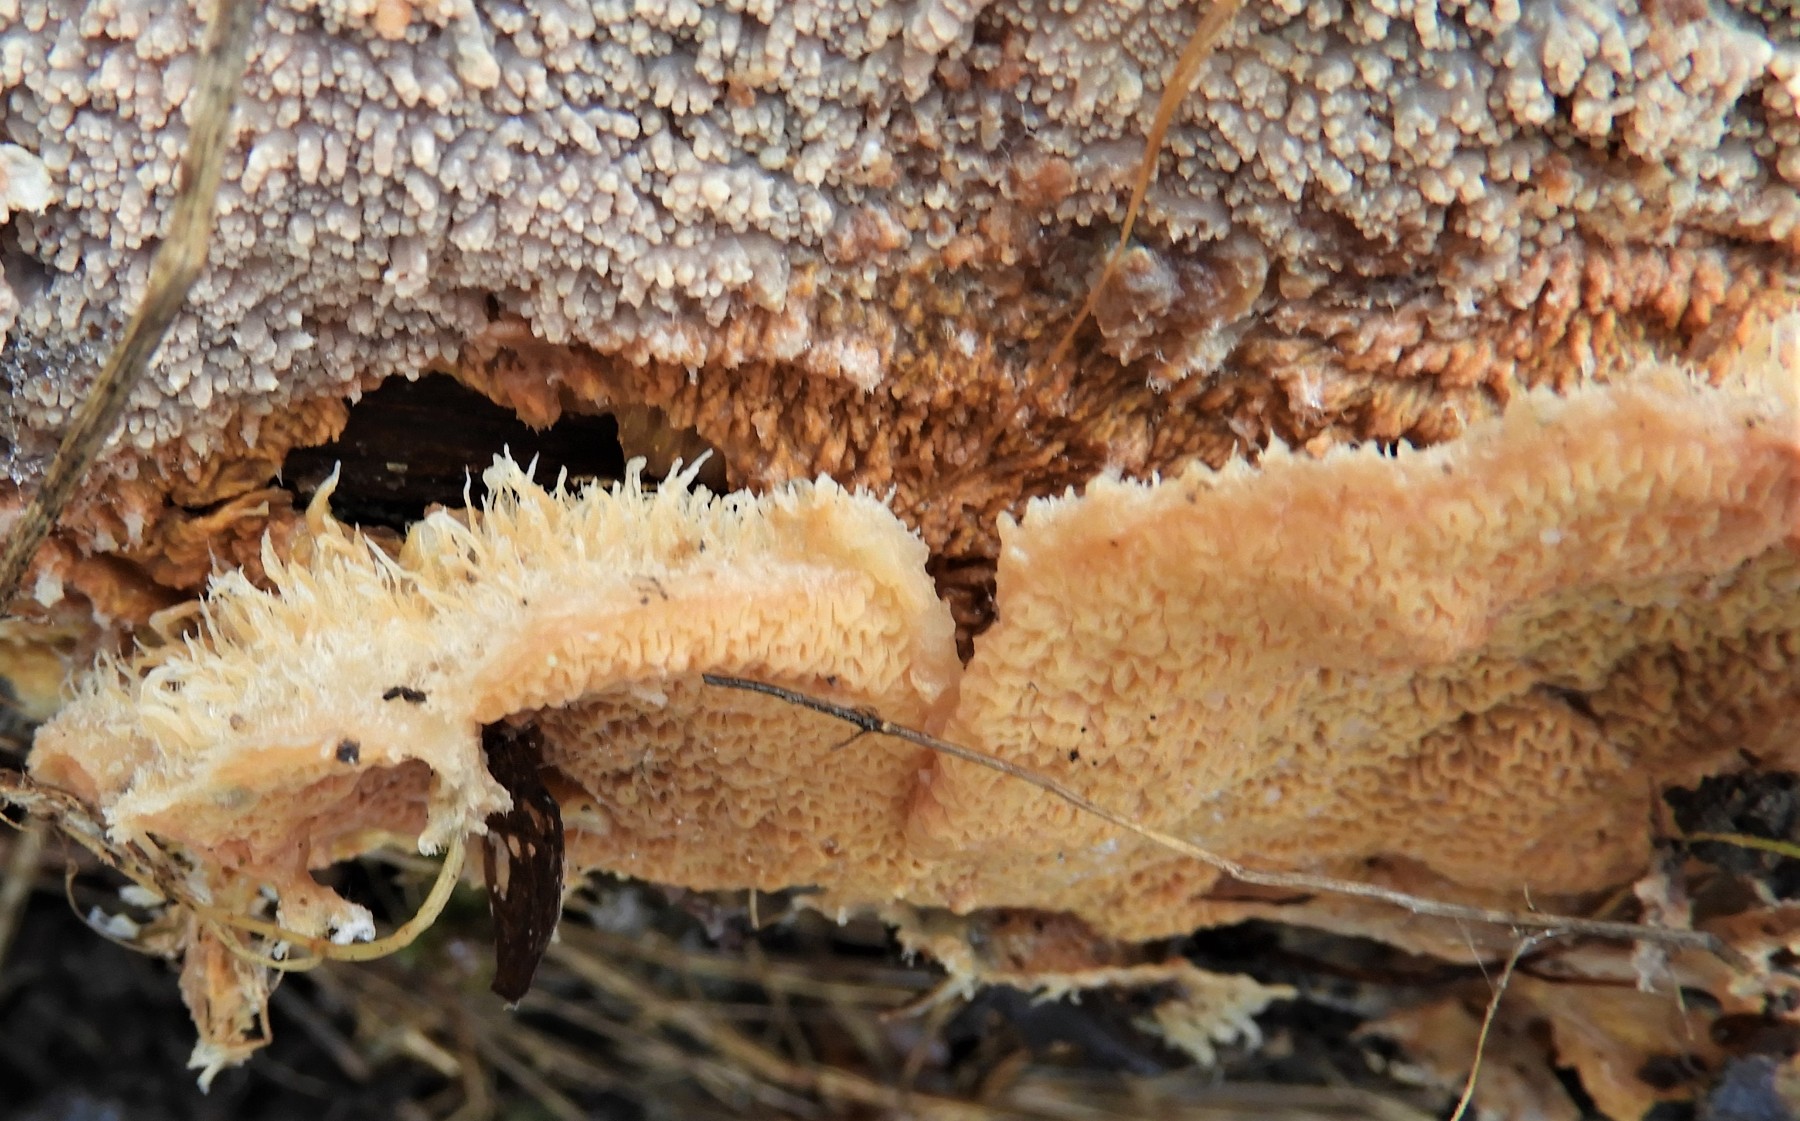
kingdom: Fungi
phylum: Basidiomycota
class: Agaricomycetes
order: Polyporales
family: Meruliaceae
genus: Phlebia
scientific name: Phlebia tremellosa
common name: bævrende åresvamp
